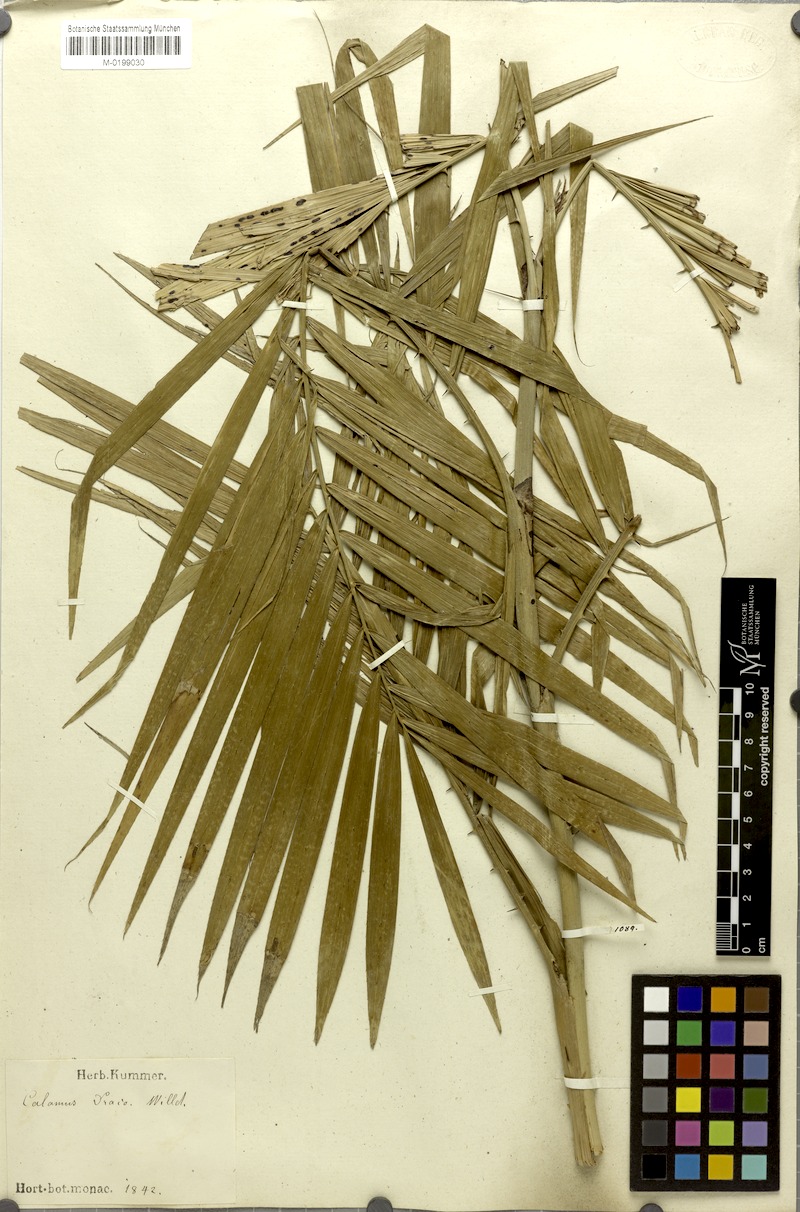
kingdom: Plantae
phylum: Tracheophyta
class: Liliopsida
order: Arecales
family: Arecaceae
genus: Calamus
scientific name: Calamus draco
